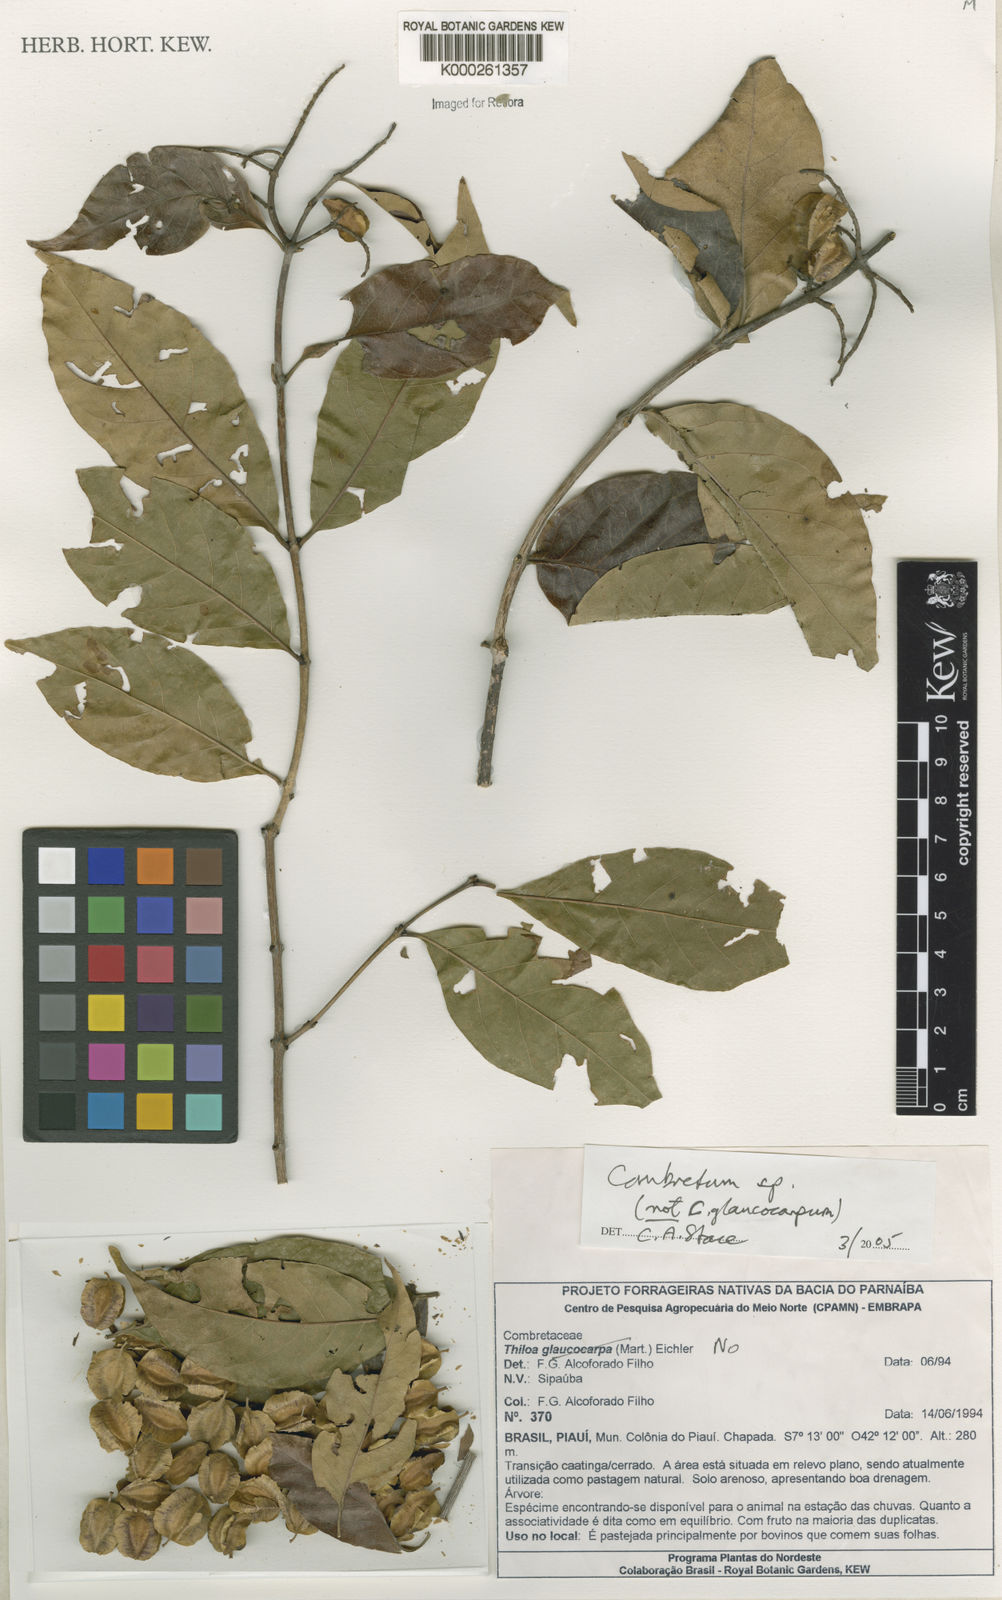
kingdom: Plantae
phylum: Tracheophyta
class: Magnoliopsida
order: Myrtales
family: Combretaceae
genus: Combretum
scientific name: Combretum
